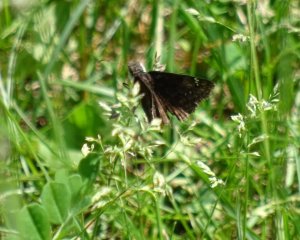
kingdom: Animalia
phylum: Arthropoda
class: Insecta
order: Lepidoptera
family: Hesperiidae
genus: Gesta
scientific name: Gesta
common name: Wild Indigo Duskywing
